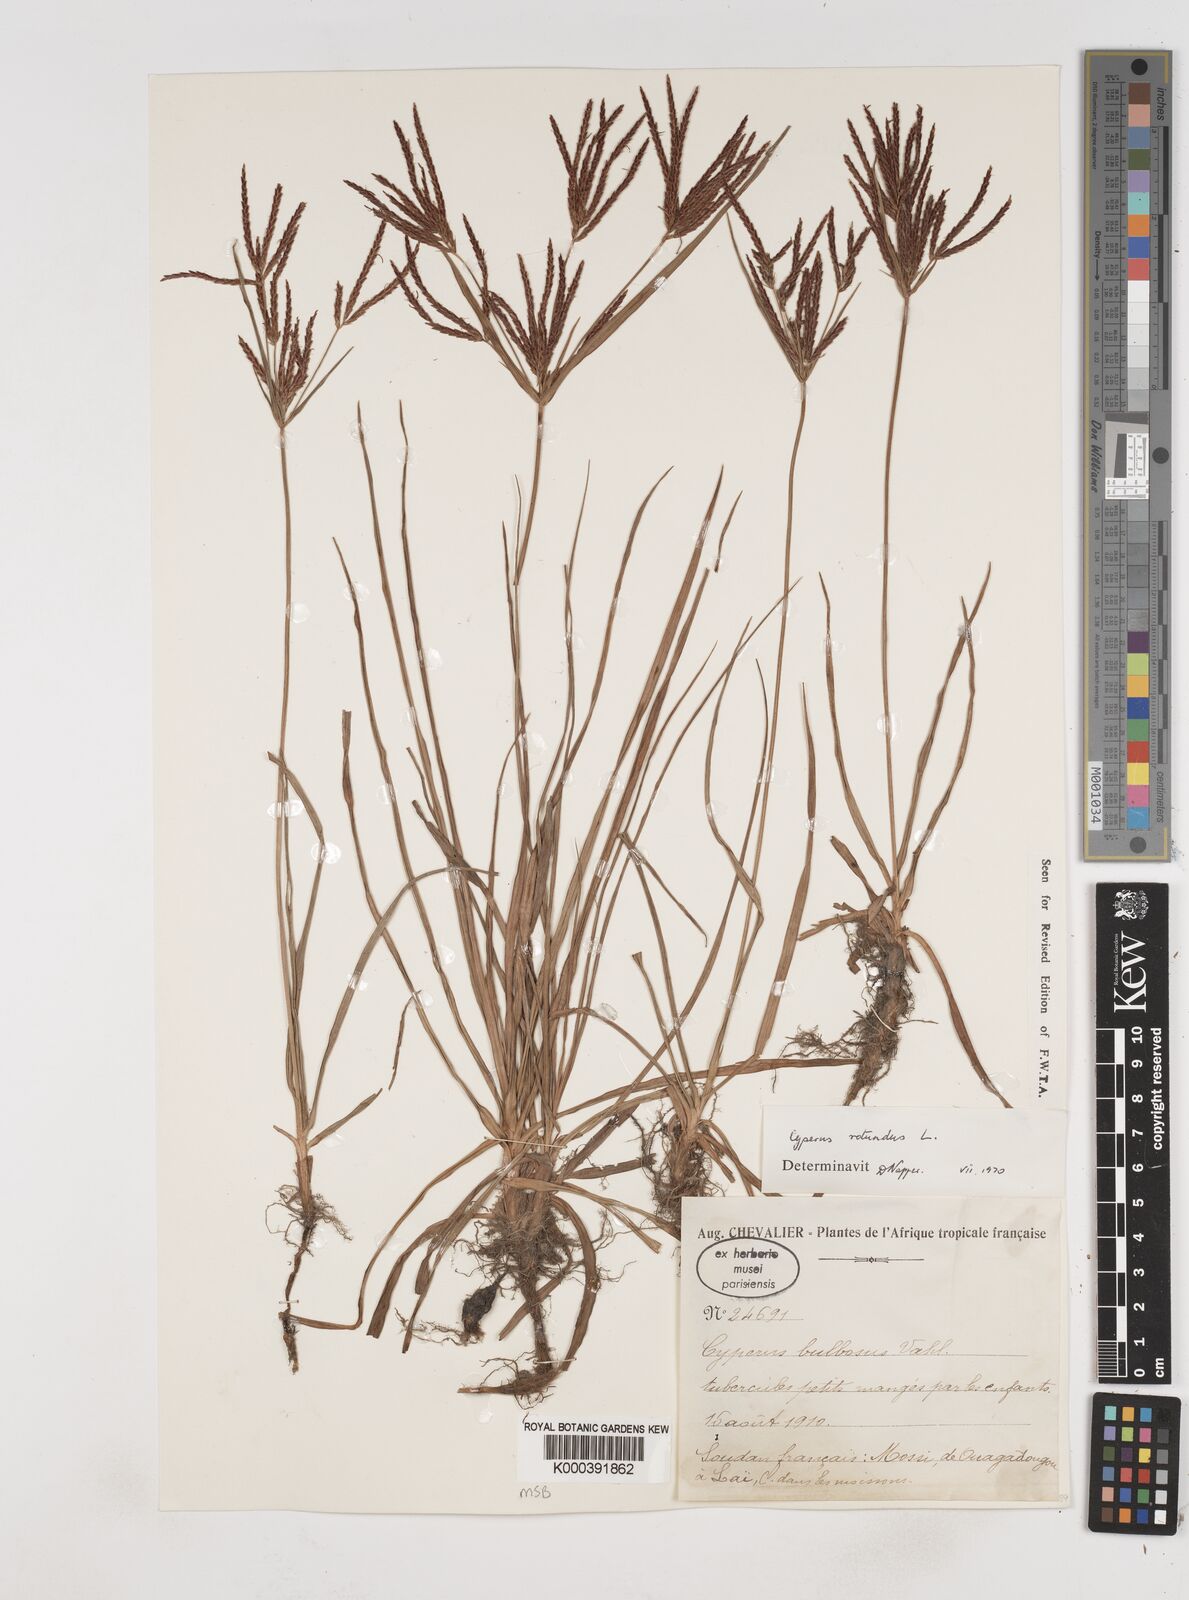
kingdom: Plantae
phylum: Tracheophyta
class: Liliopsida
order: Poales
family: Cyperaceae
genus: Cyperus
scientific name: Cyperus rotundus
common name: Nutgrass
